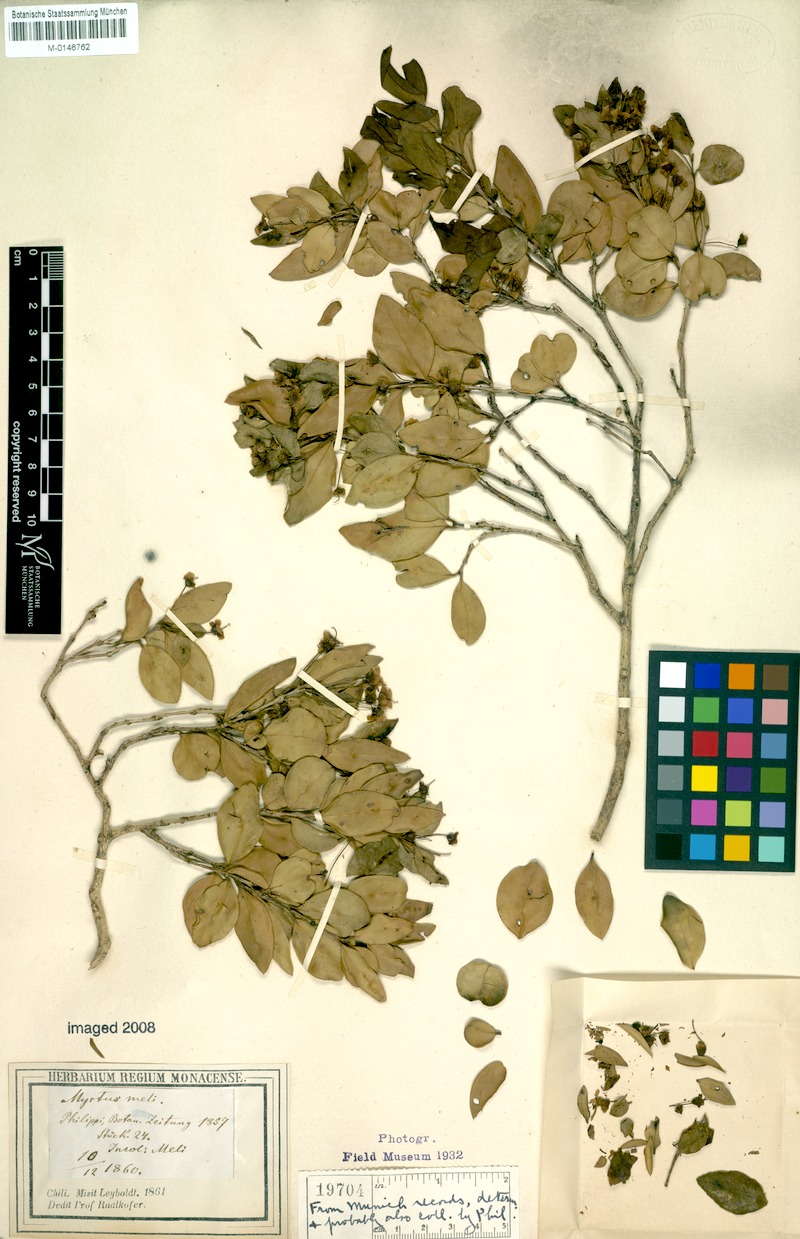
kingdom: Plantae
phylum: Tracheophyta
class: Magnoliopsida
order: Myrtales
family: Myrtaceae
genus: Amomyrtus
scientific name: Amomyrtus meli
